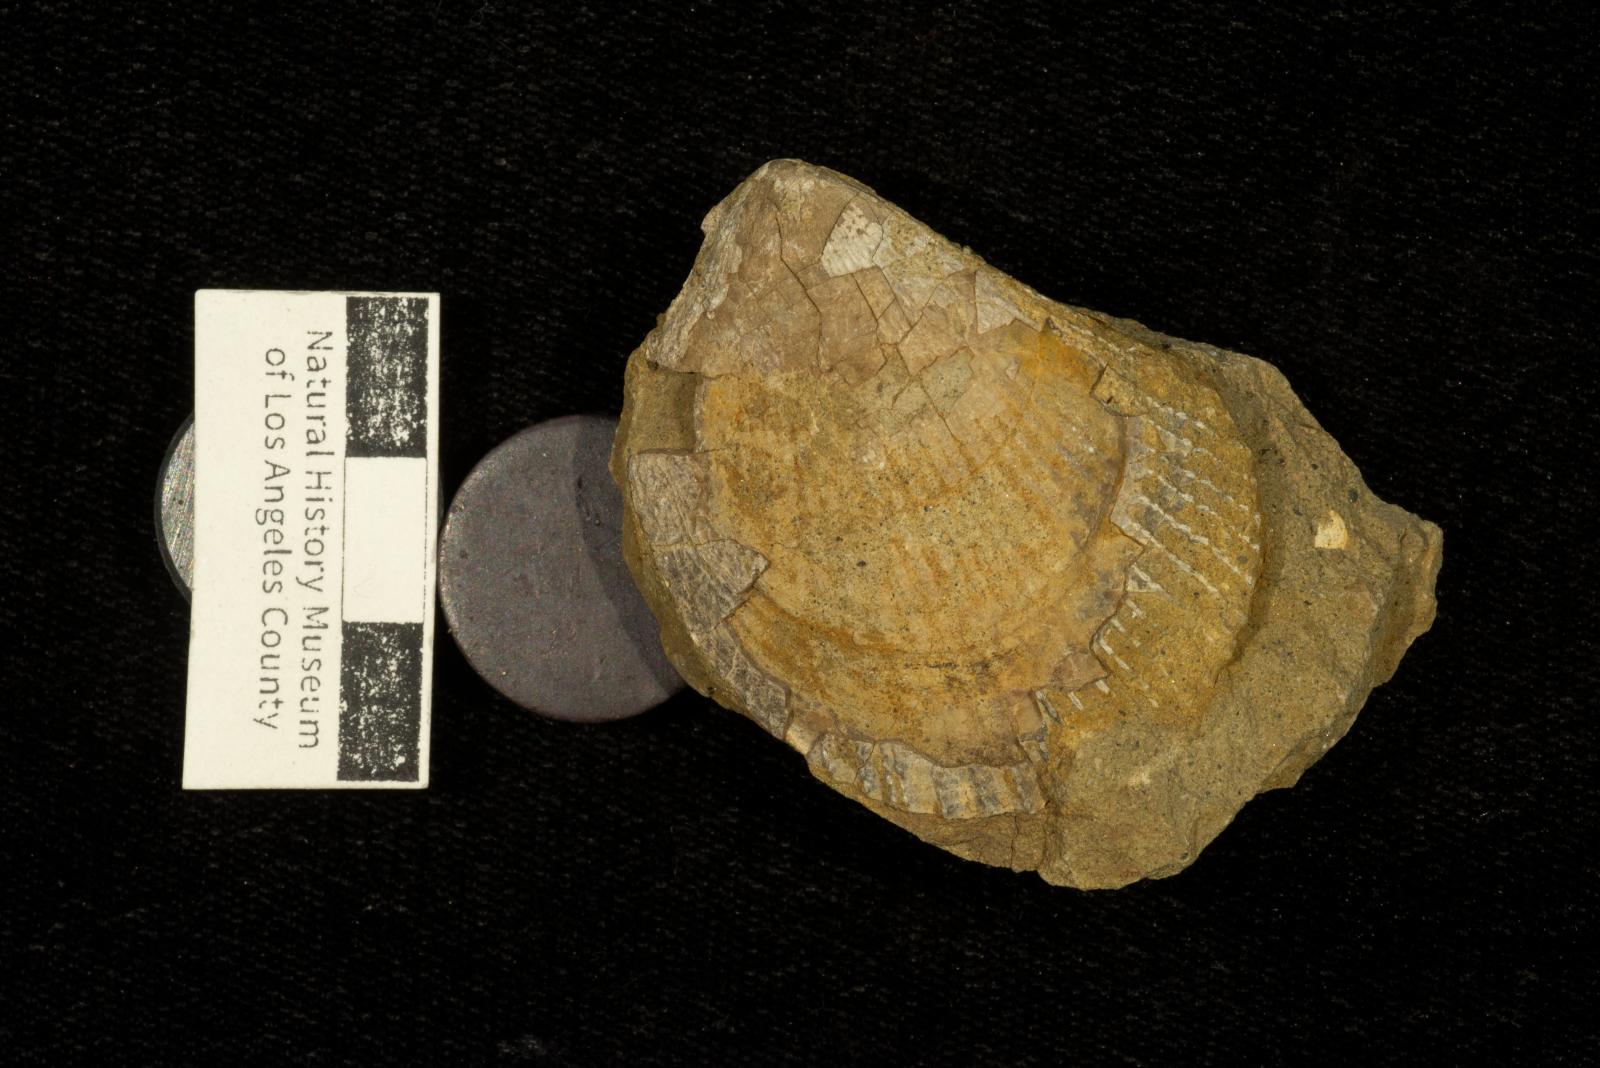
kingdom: Animalia
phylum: Mollusca
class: Bivalvia
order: Limida
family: Limidae
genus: Lima
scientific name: Lima
